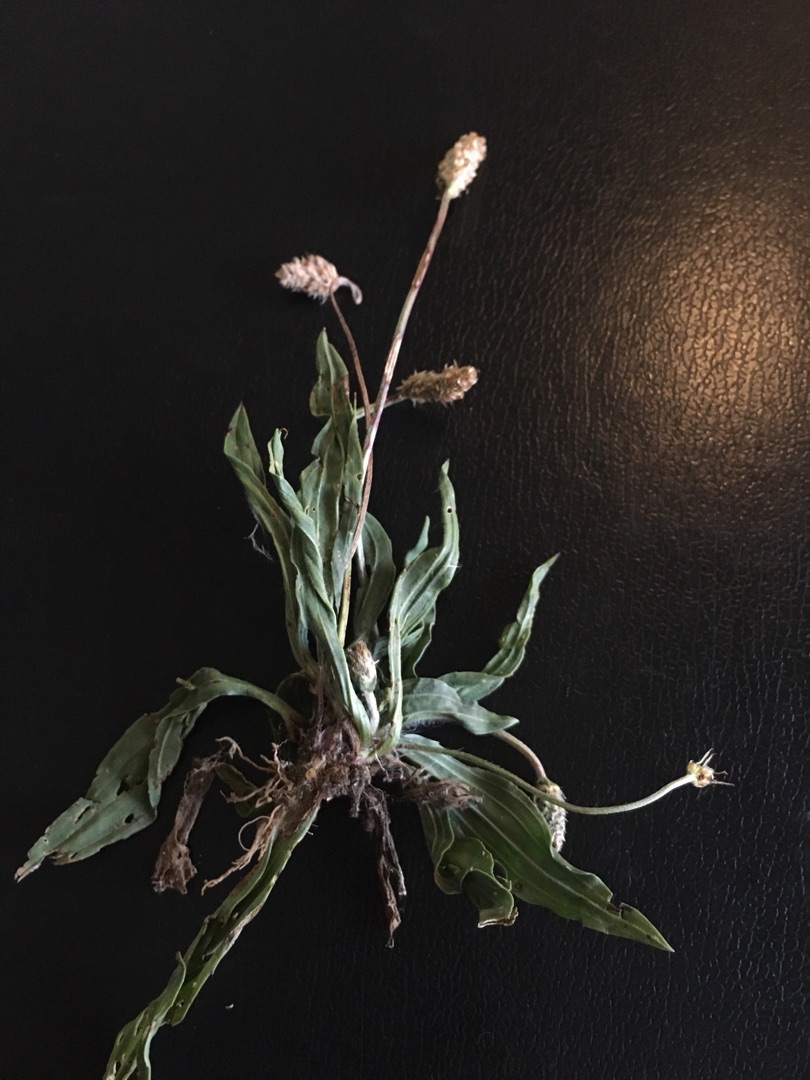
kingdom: Plantae
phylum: Tracheophyta
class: Magnoliopsida
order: Lamiales
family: Plantaginaceae
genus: Plantago
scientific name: Plantago lanceolata
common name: Lancet-vejbred
